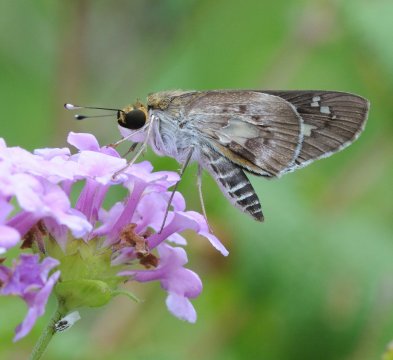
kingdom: Animalia
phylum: Arthropoda
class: Insecta
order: Lepidoptera
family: Hesperiidae
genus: Andronymus
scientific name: Andronymus neander
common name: Nomad Dart
